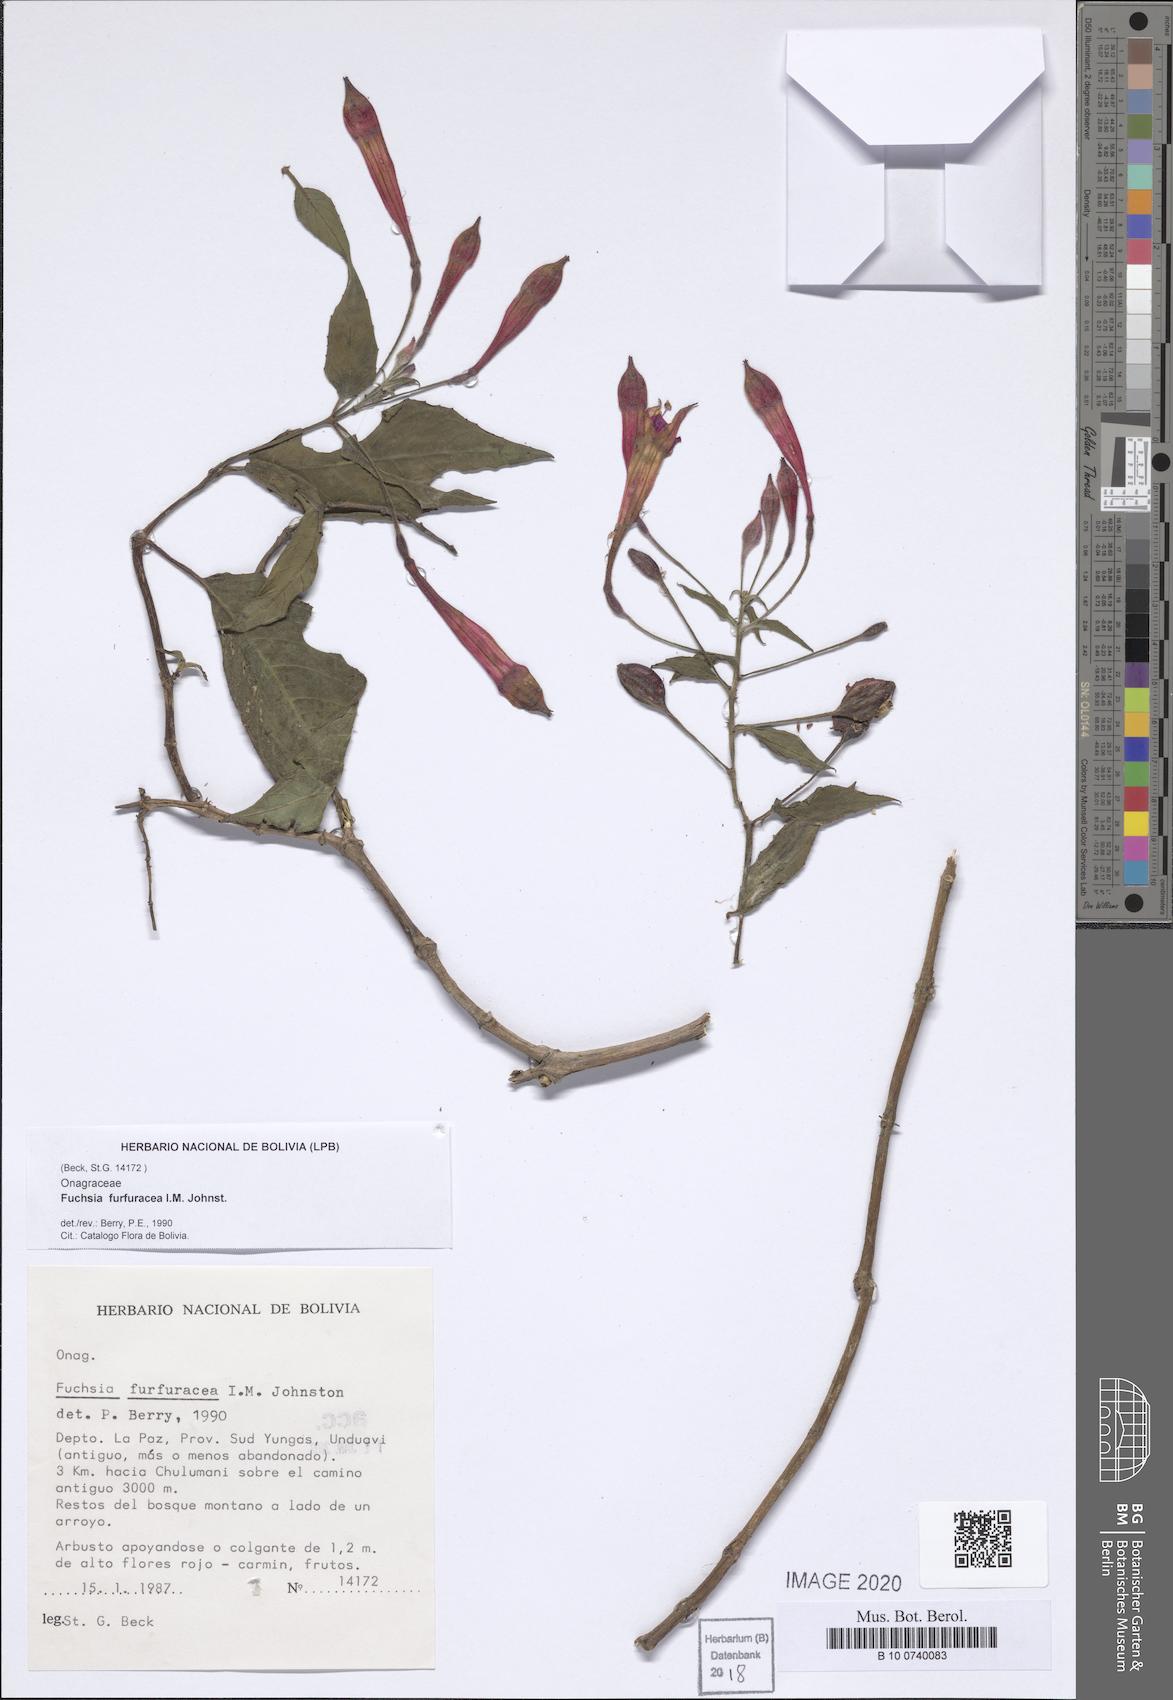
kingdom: Plantae
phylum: Tracheophyta
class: Magnoliopsida
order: Myrtales
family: Onagraceae
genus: Fuchsia
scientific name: Fuchsia furfuracea
